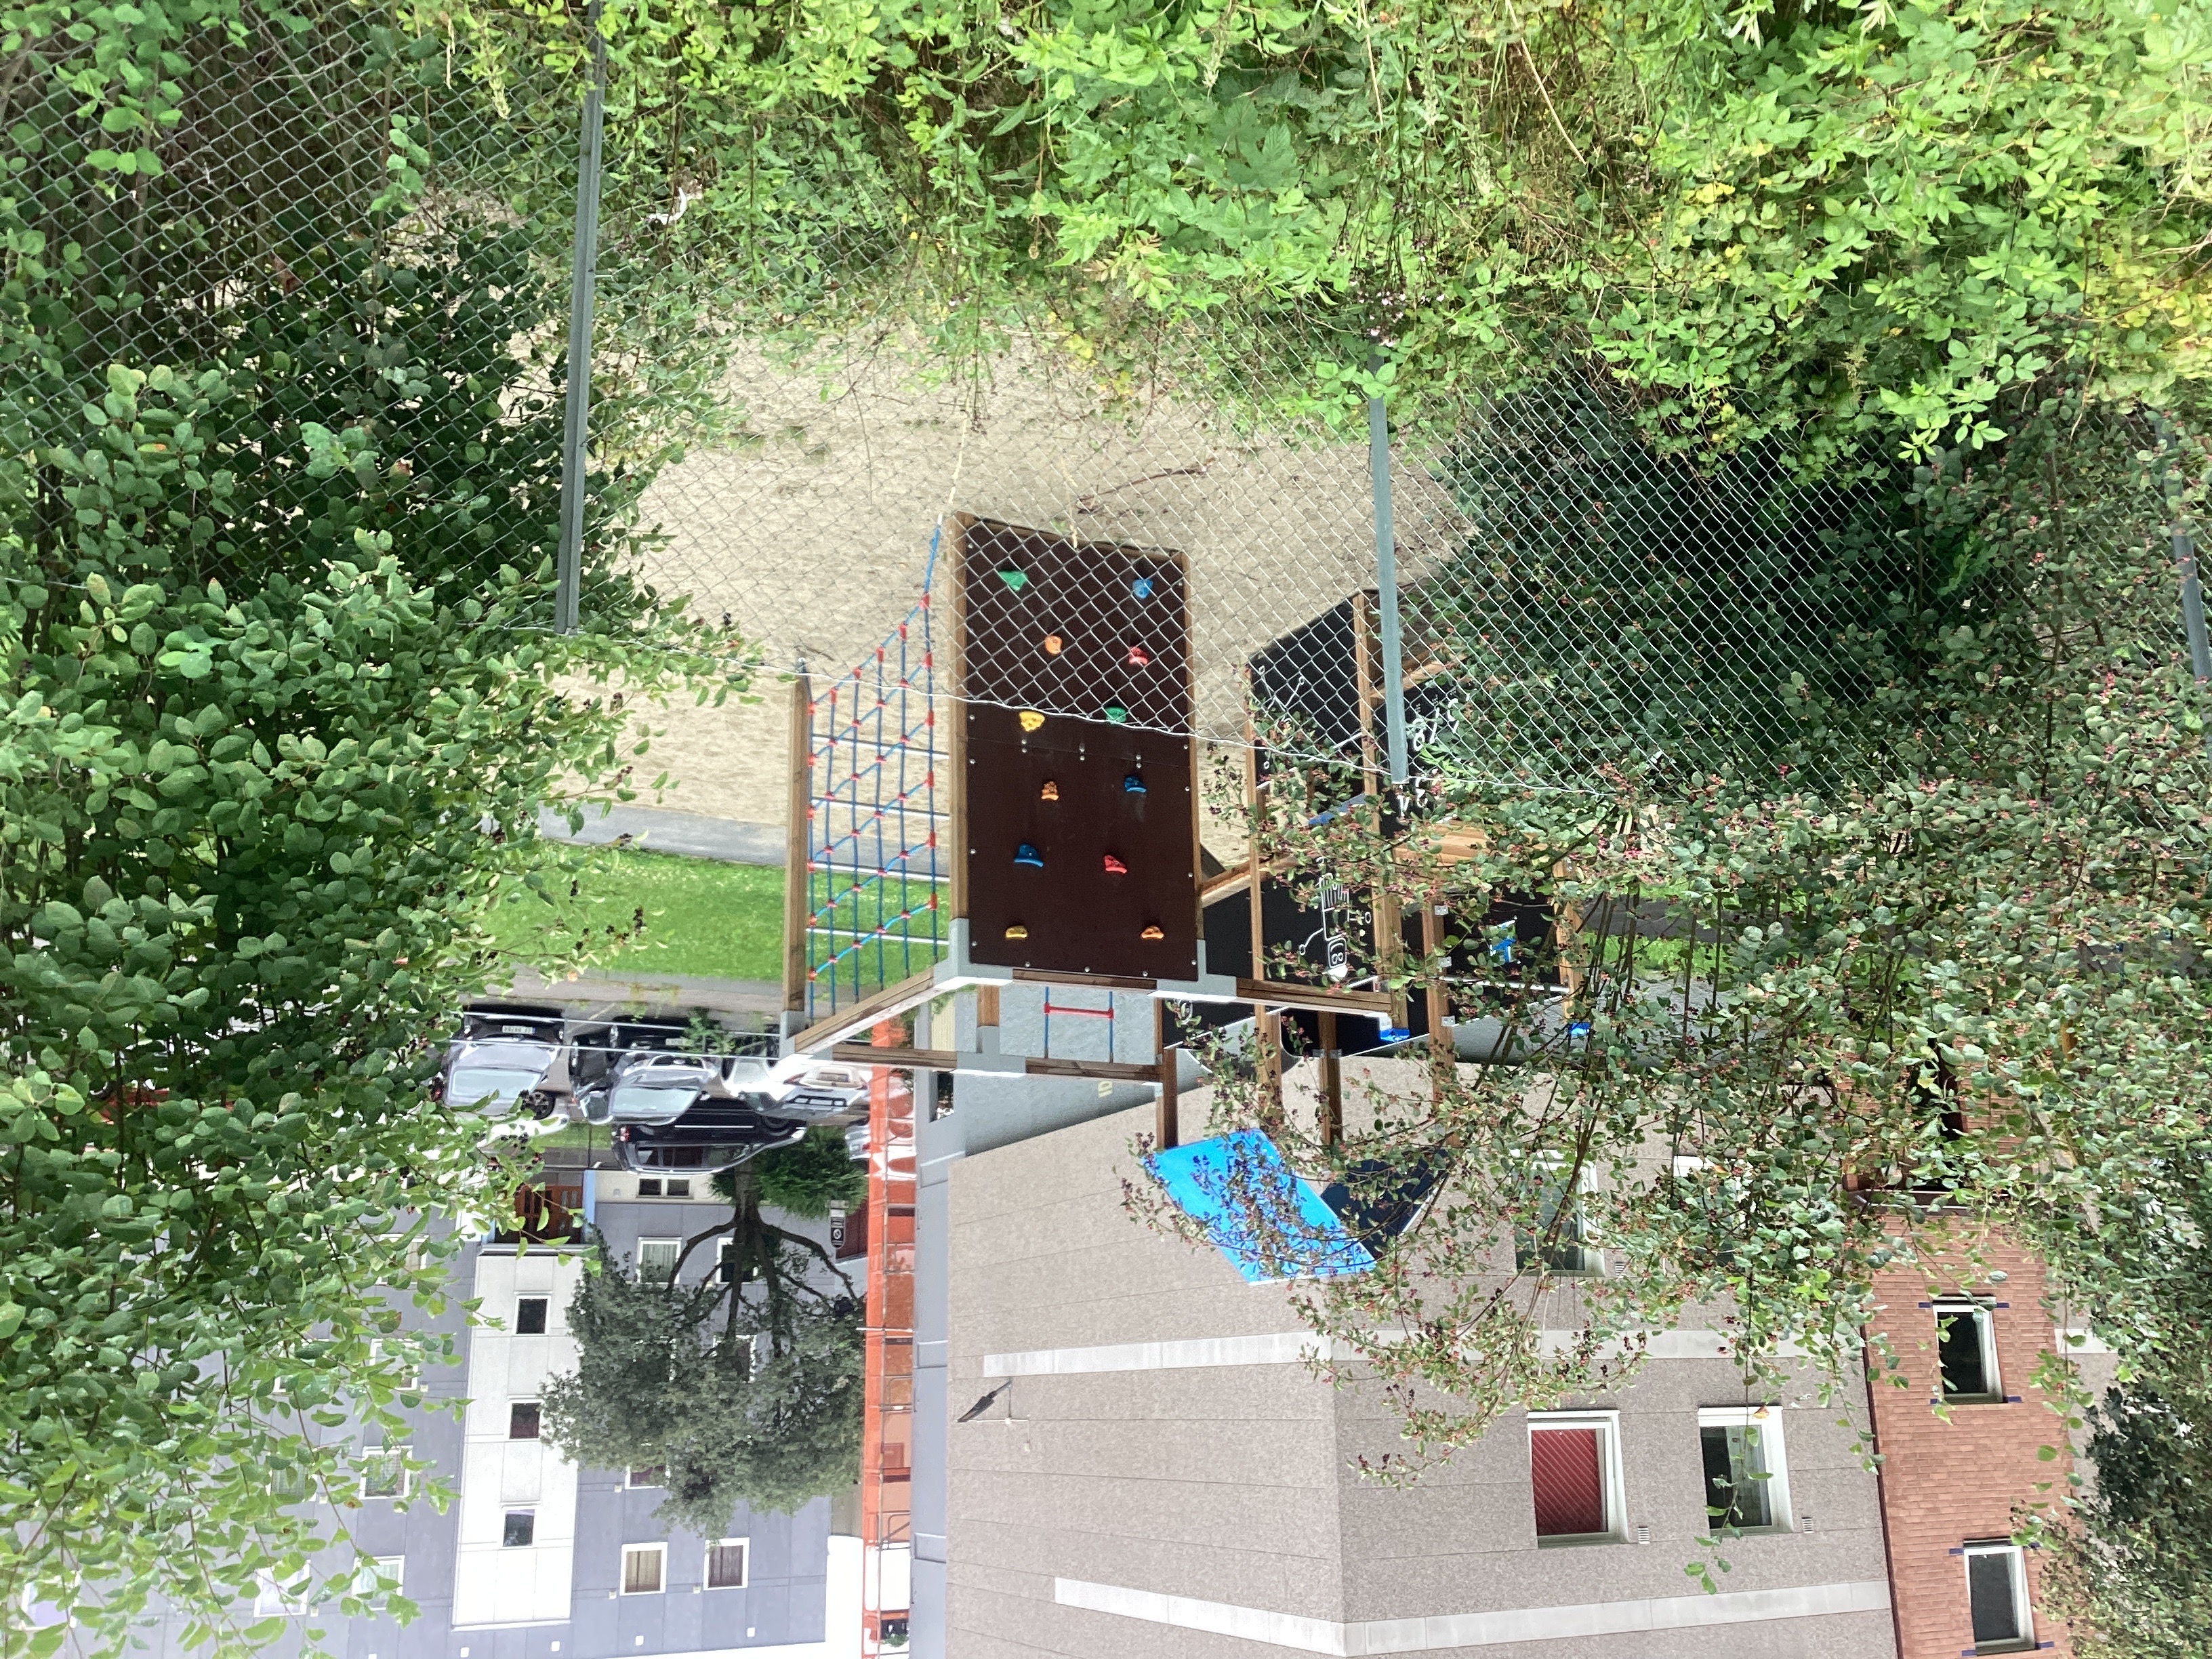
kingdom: Plantae
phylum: Tracheophyta
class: Magnoliopsida
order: Rosales
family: Rosaceae
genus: Amelanchier
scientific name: Amelanchier humilis
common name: blåhegg
